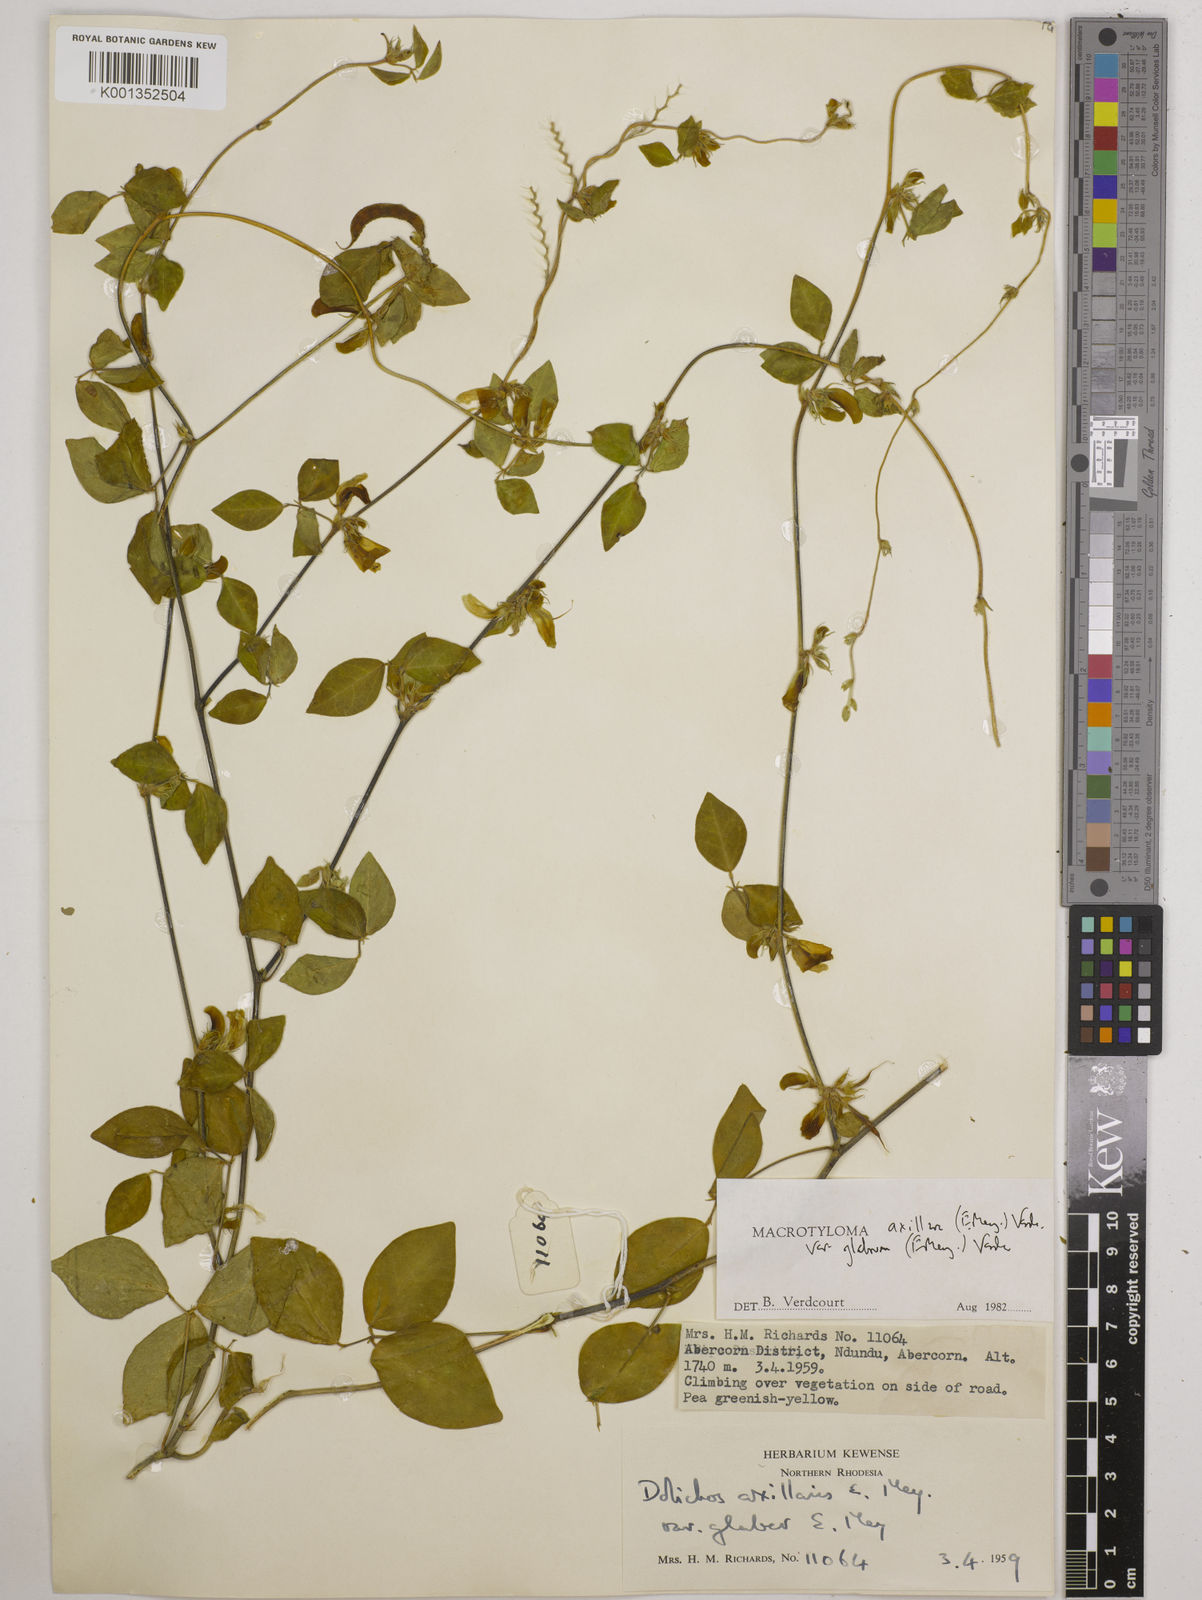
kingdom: Plantae
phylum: Tracheophyta
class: Magnoliopsida
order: Fabales
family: Fabaceae
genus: Macrotyloma
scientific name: Macrotyloma
